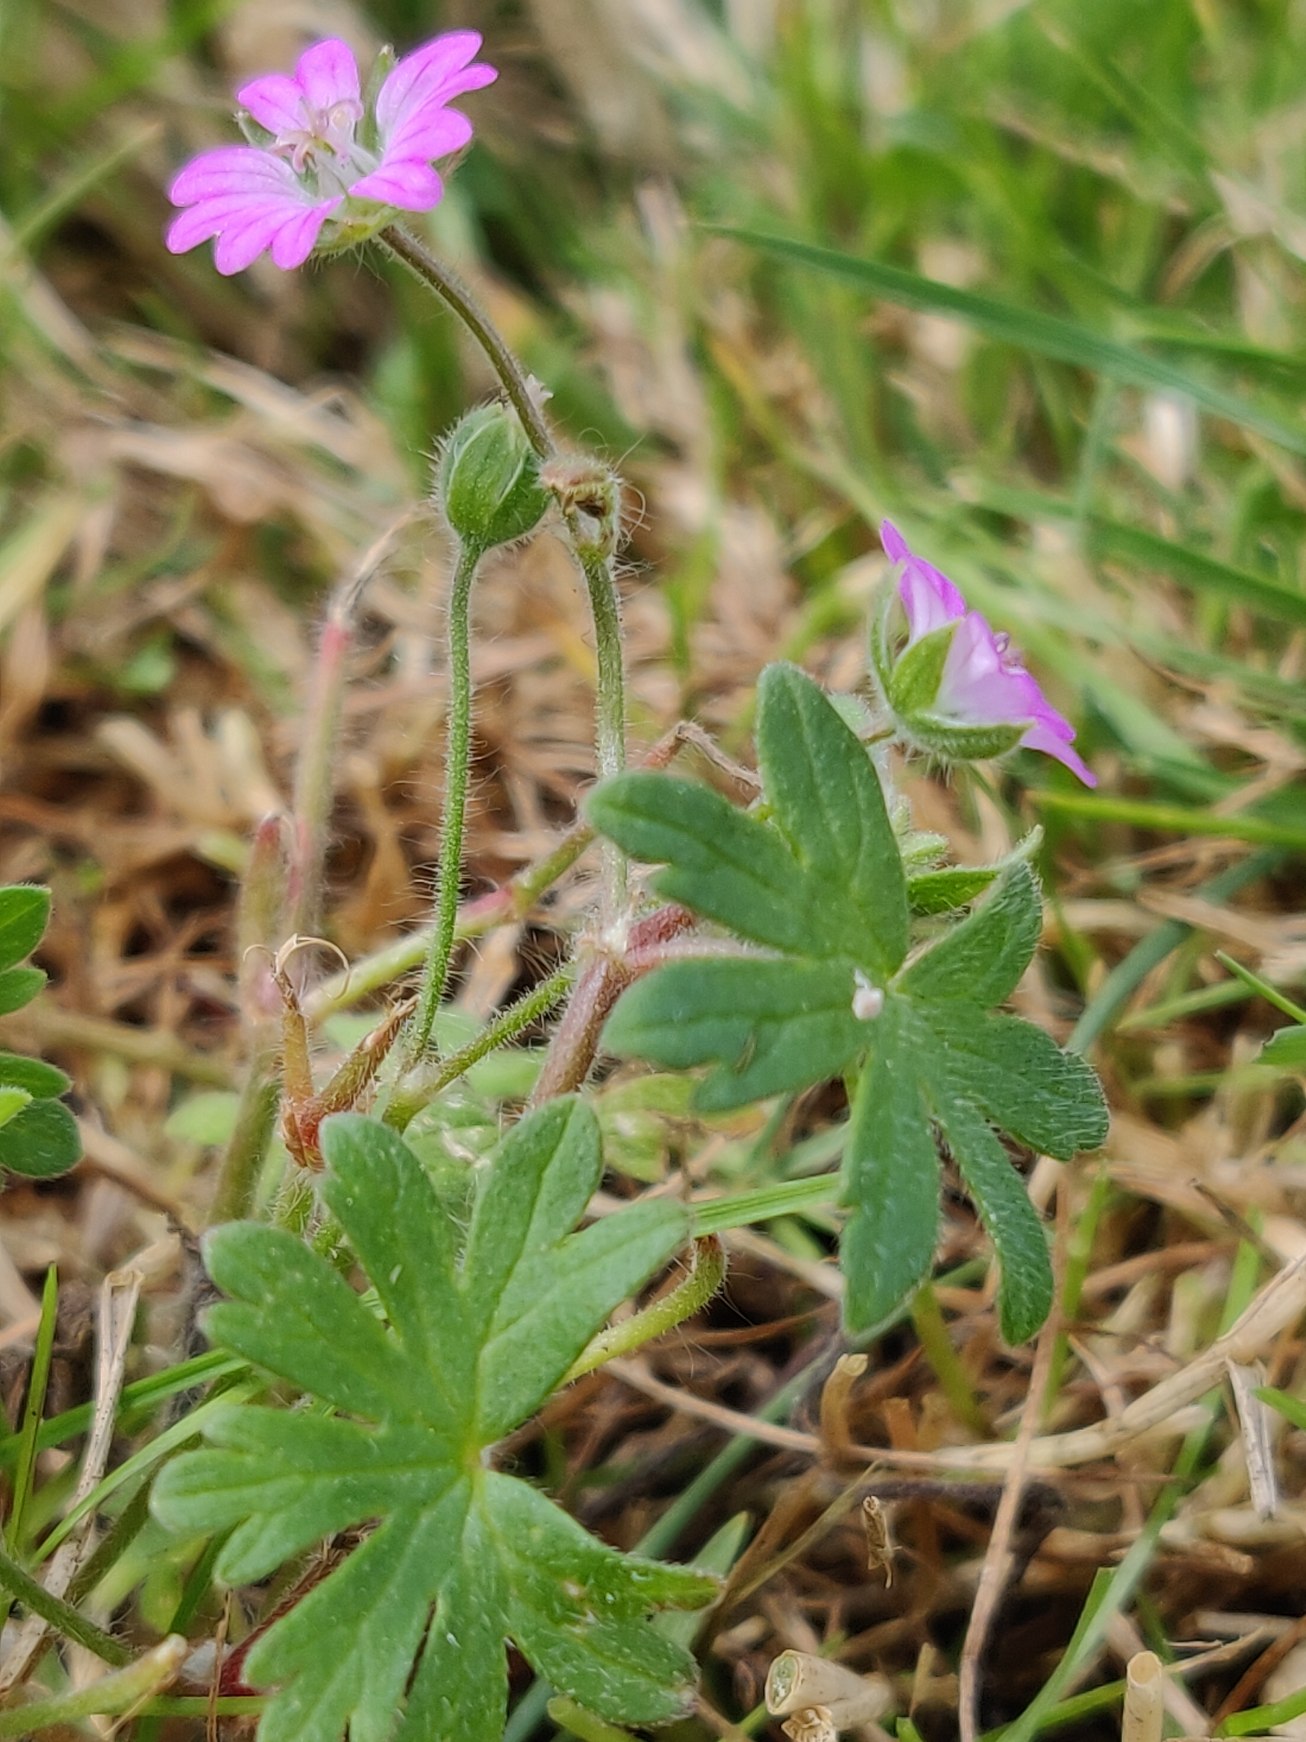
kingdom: Plantae
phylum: Tracheophyta
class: Magnoliopsida
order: Geraniales
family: Geraniaceae
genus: Geranium
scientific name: Geranium molle
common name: Blød storkenæb
